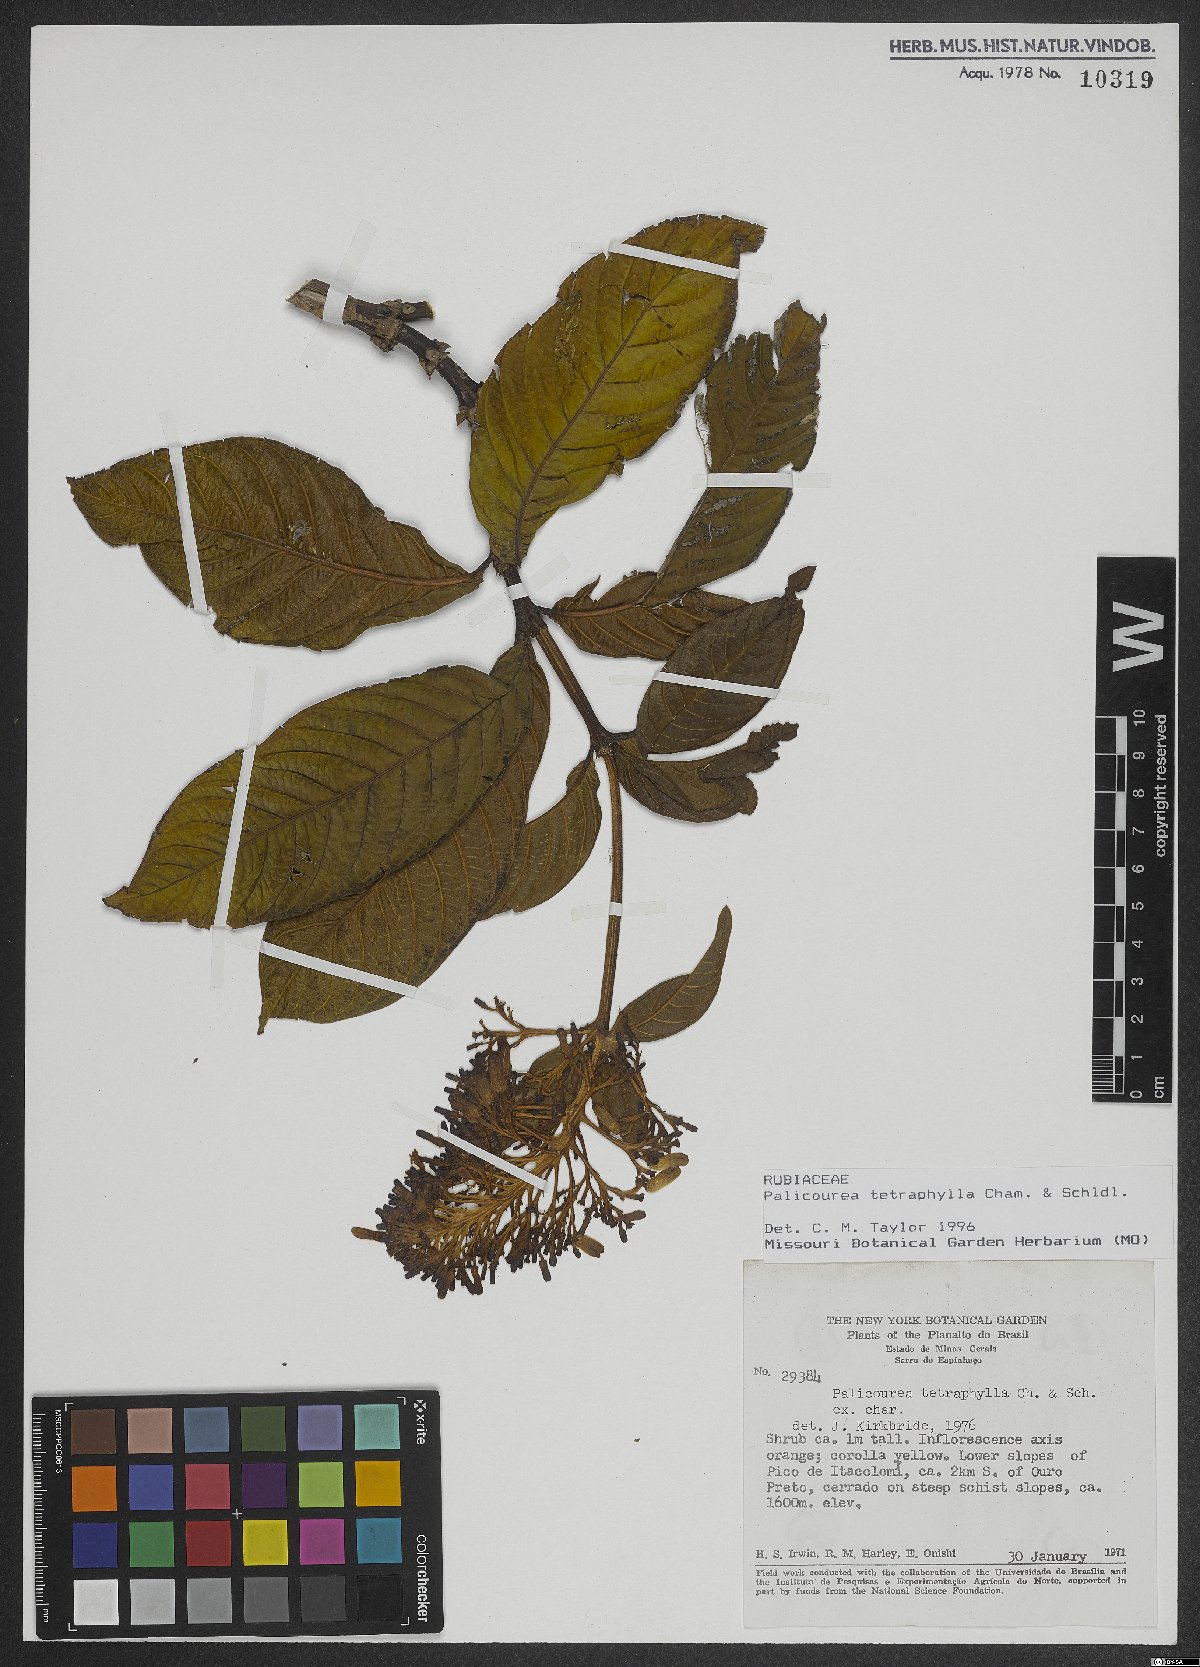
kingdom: Plantae
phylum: Tracheophyta
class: Magnoliopsida
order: Gentianales
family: Rubiaceae
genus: Palicourea
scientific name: Palicourea tetraphylla
